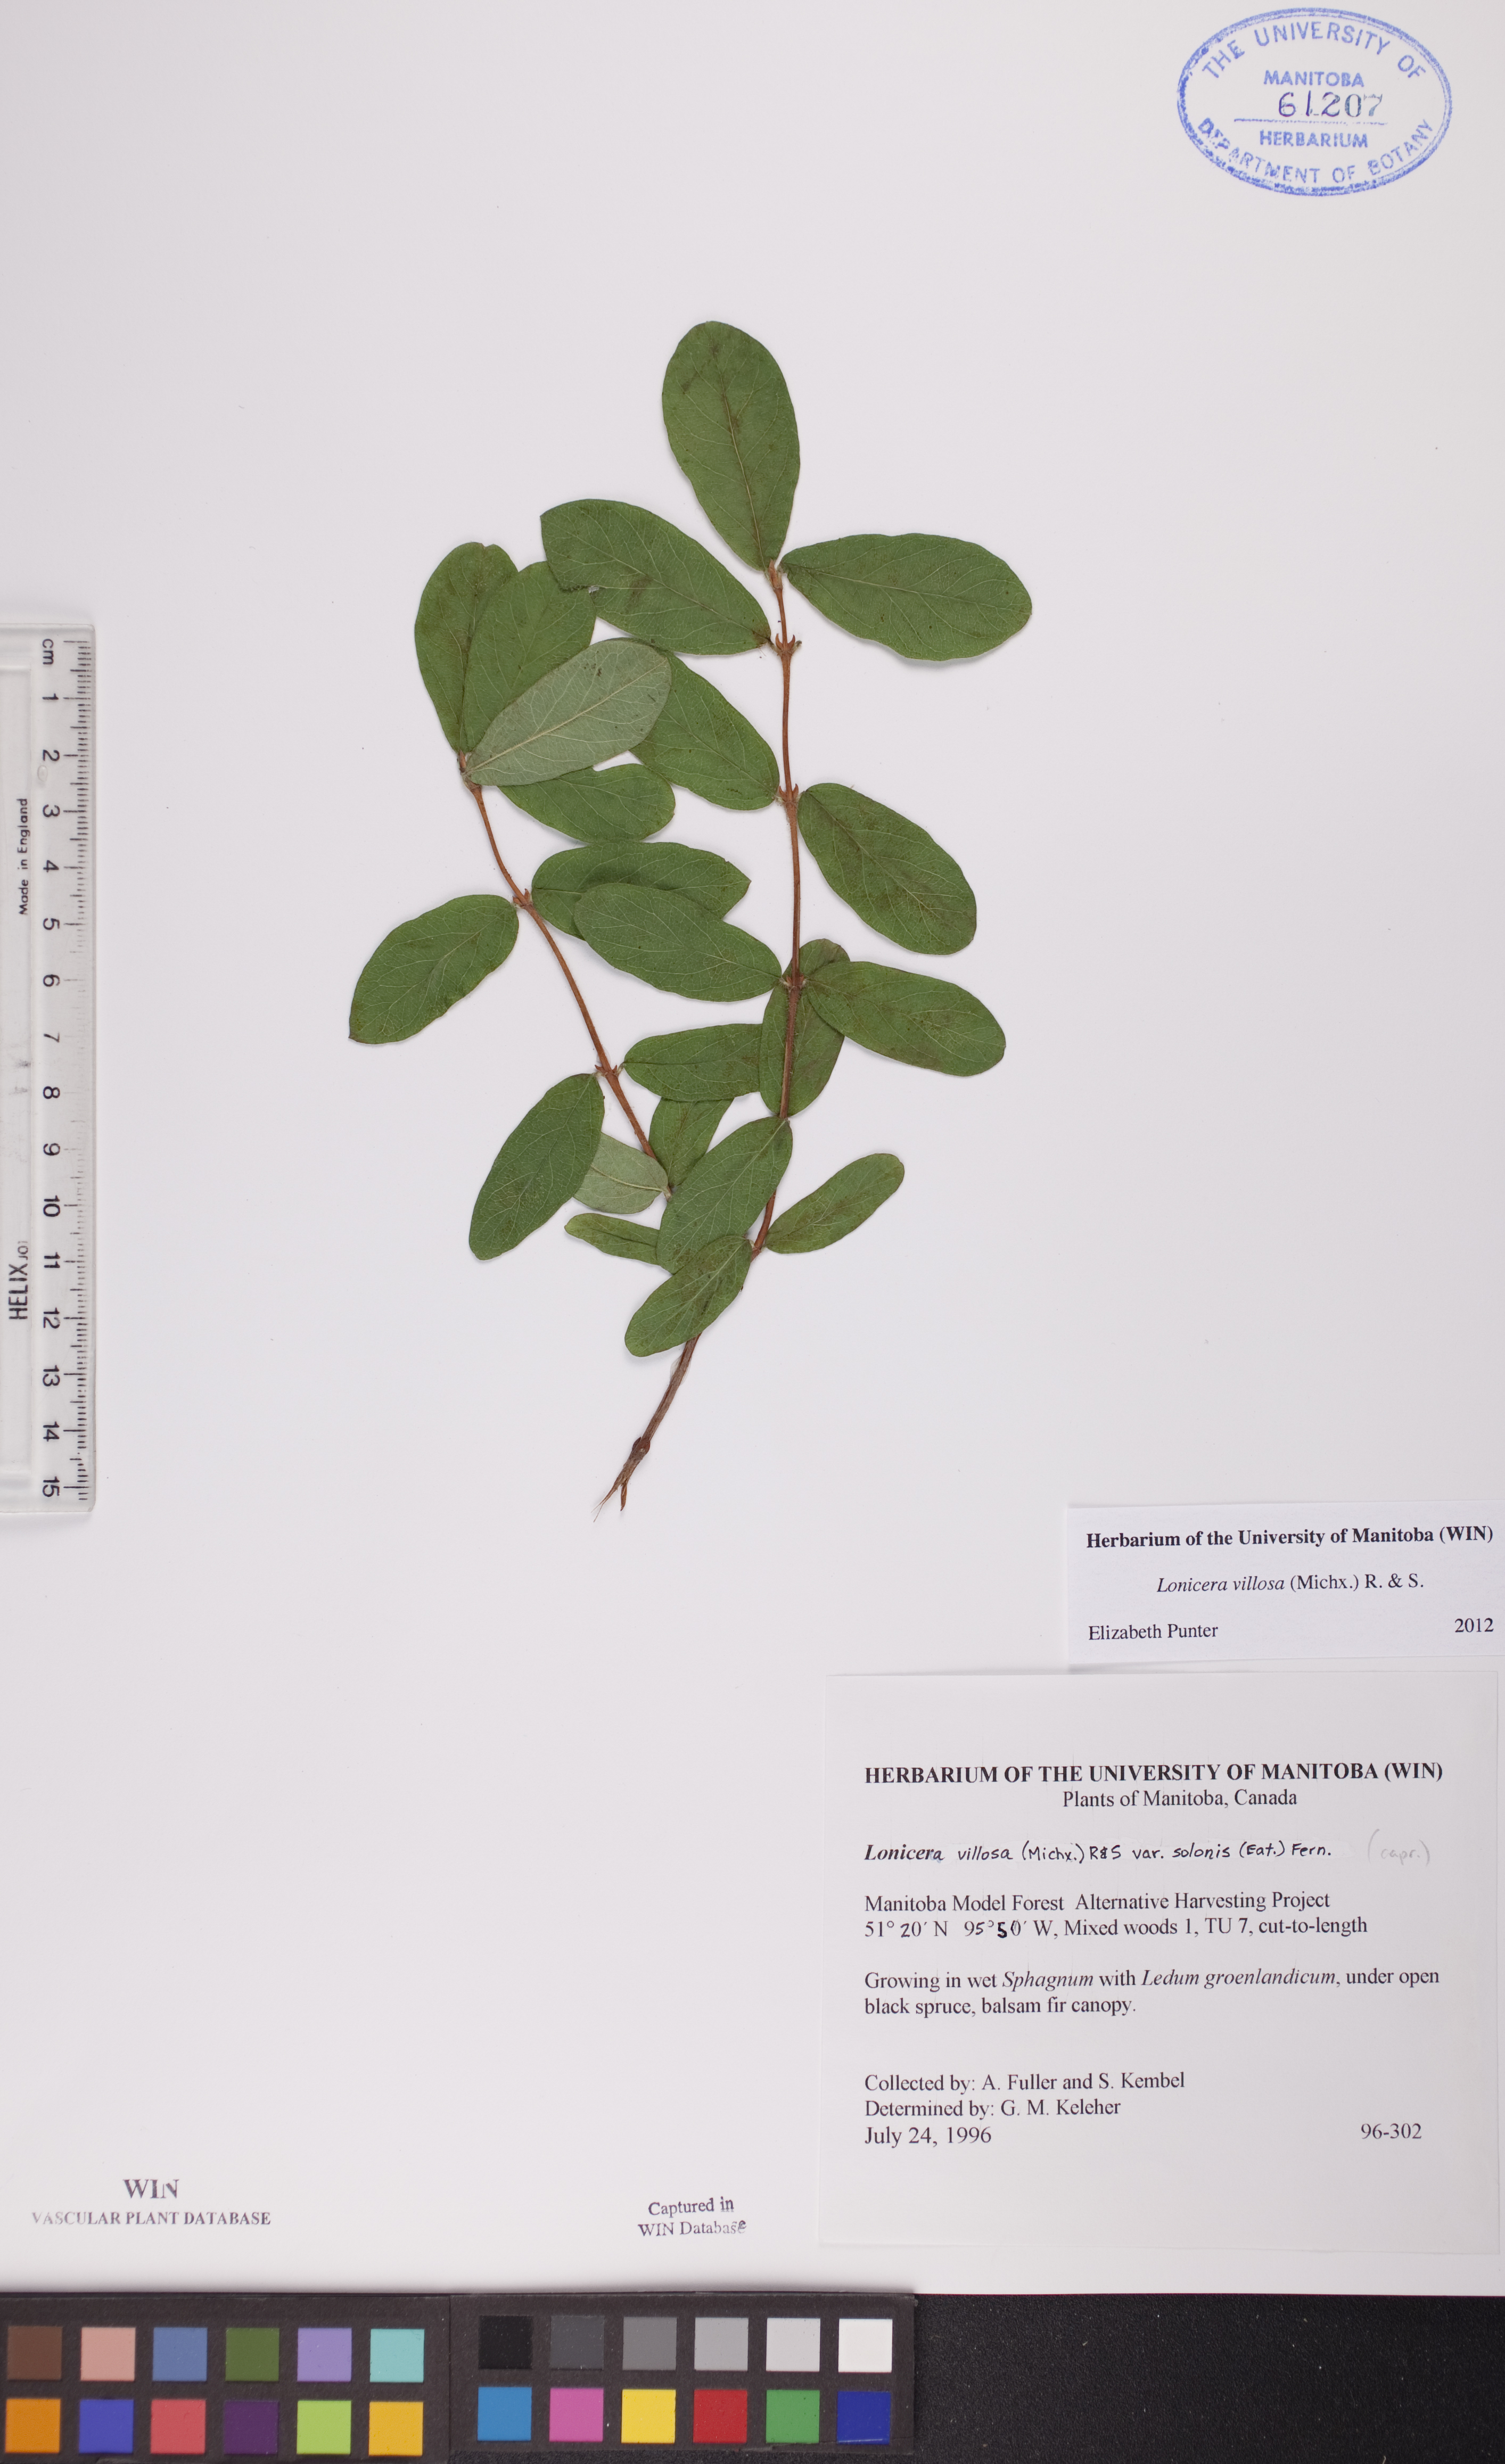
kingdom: Plantae
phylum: Tracheophyta
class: Magnoliopsida
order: Dipsacales
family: Caprifoliaceae
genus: Lonicera
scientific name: Lonicera villosa
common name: Mountain fly-honeysuckle
